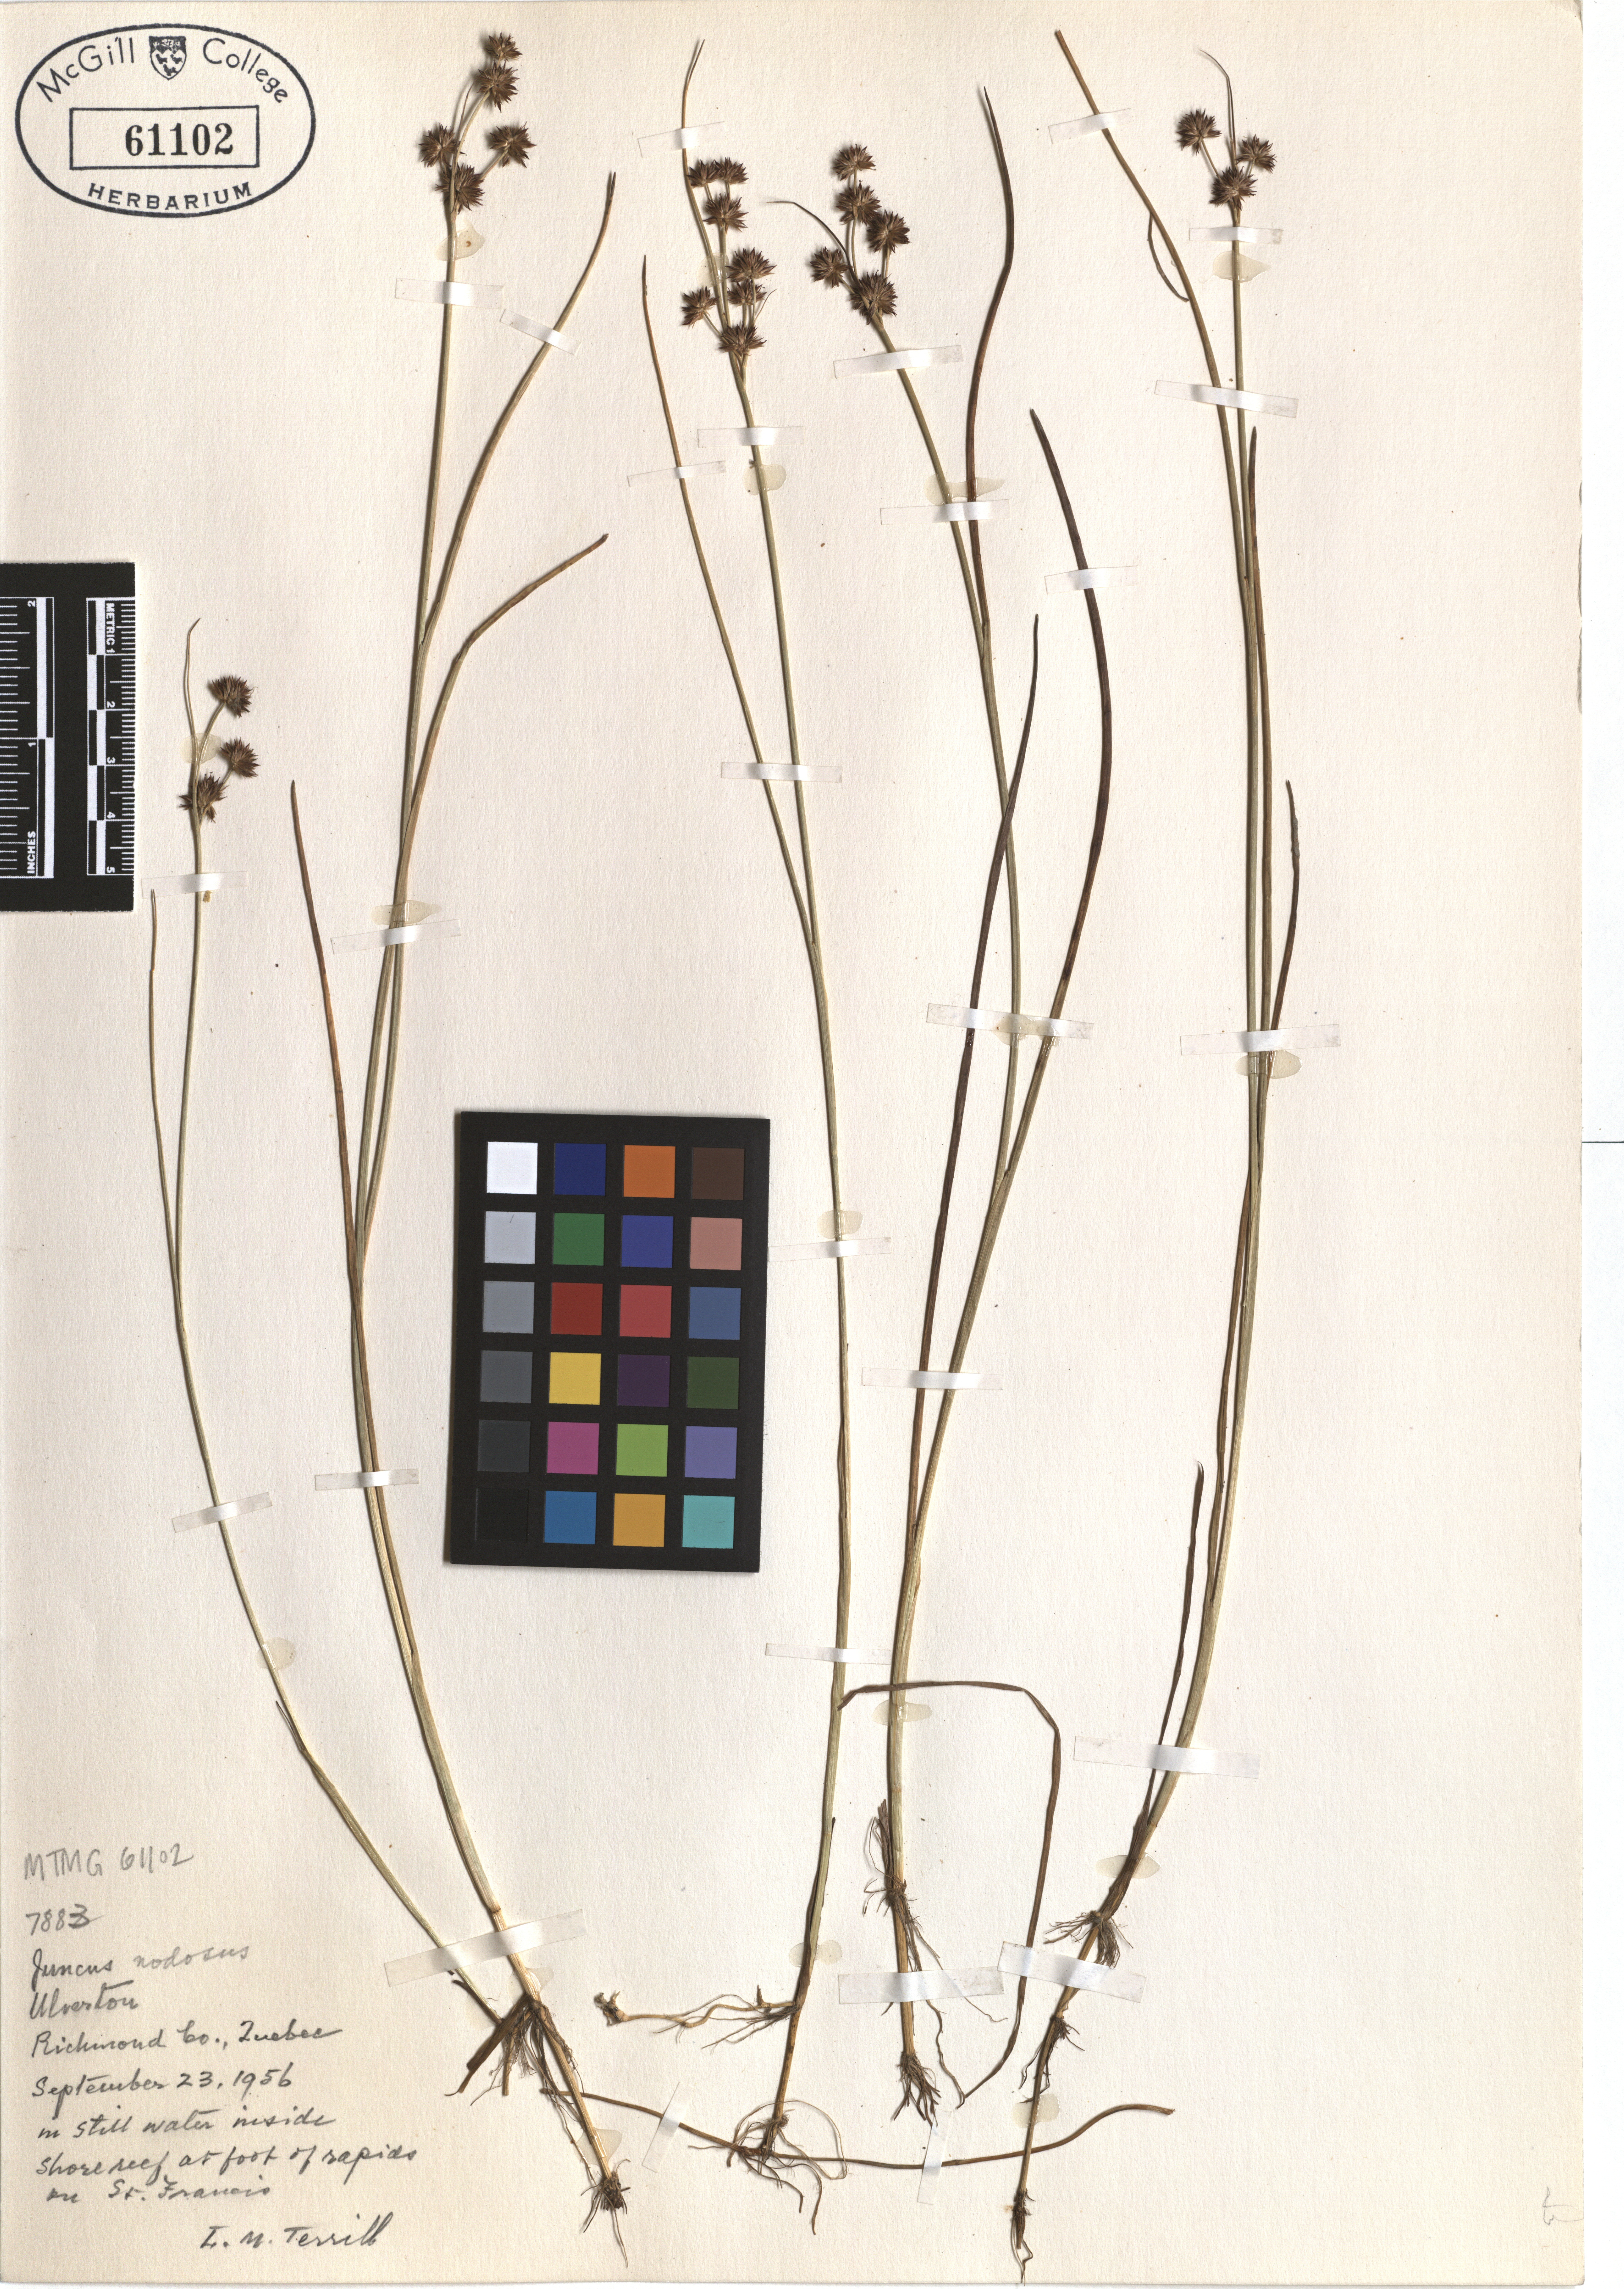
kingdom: Plantae
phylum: Tracheophyta
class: Liliopsida
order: Poales
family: Juncaceae
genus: Juncus
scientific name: Juncus nodosus
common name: Knotted rush
